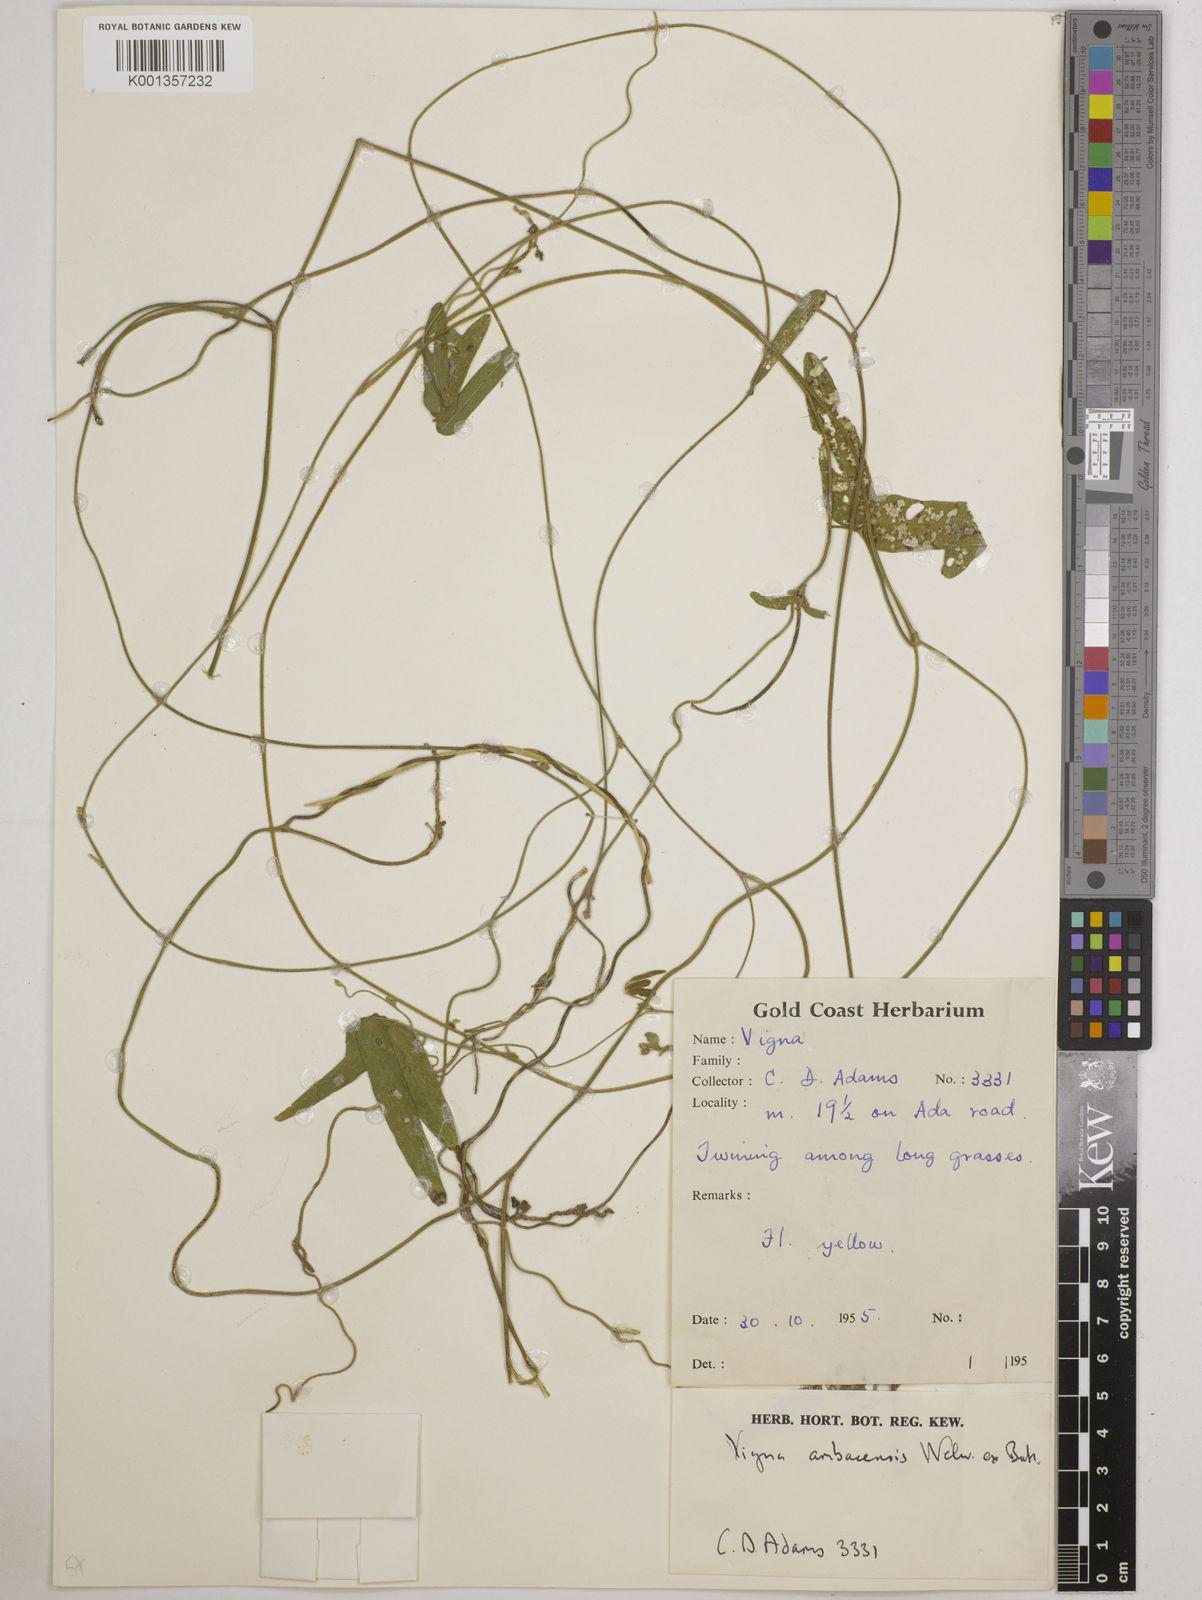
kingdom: Plantae
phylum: Tracheophyta
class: Magnoliopsida
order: Fabales
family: Fabaceae
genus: Vigna
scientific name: Vigna ambacensis
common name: Tsarkiyan zomo
